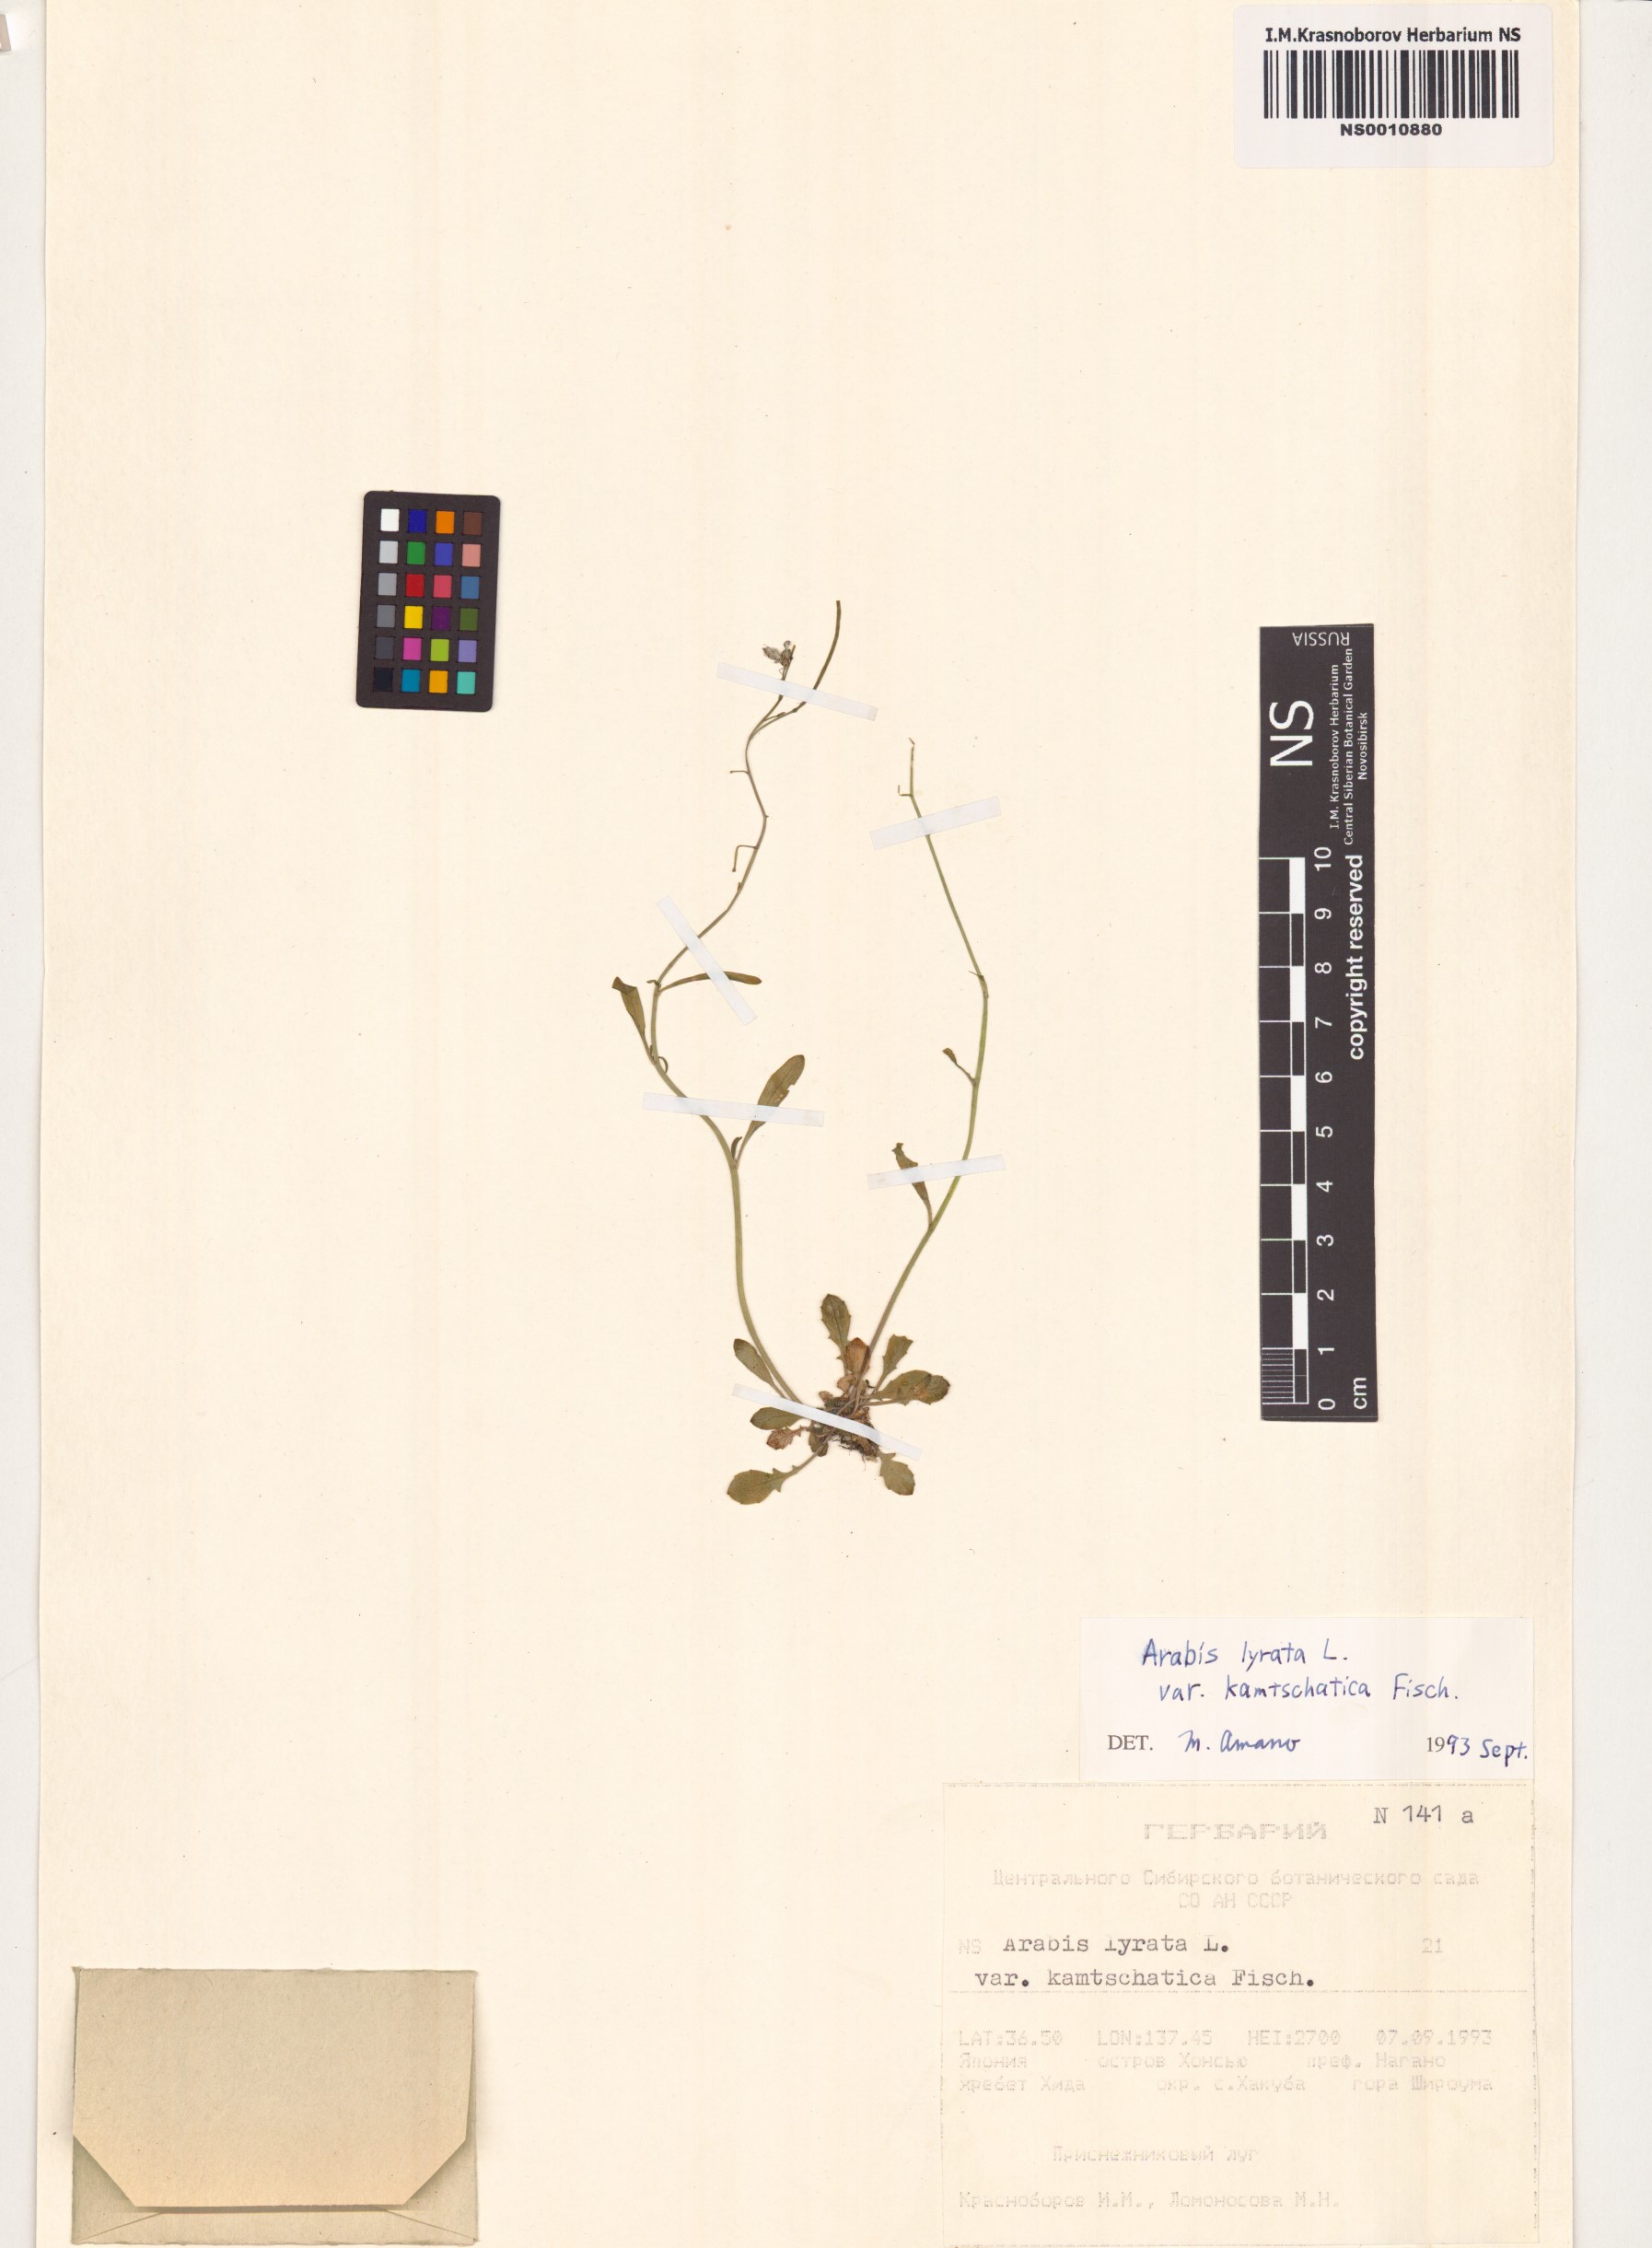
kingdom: Plantae
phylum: Tracheophyta
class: Magnoliopsida
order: Brassicales
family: Brassicaceae
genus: Arabidopsis
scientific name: Arabidopsis lyrata
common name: Lyrate rockcress
